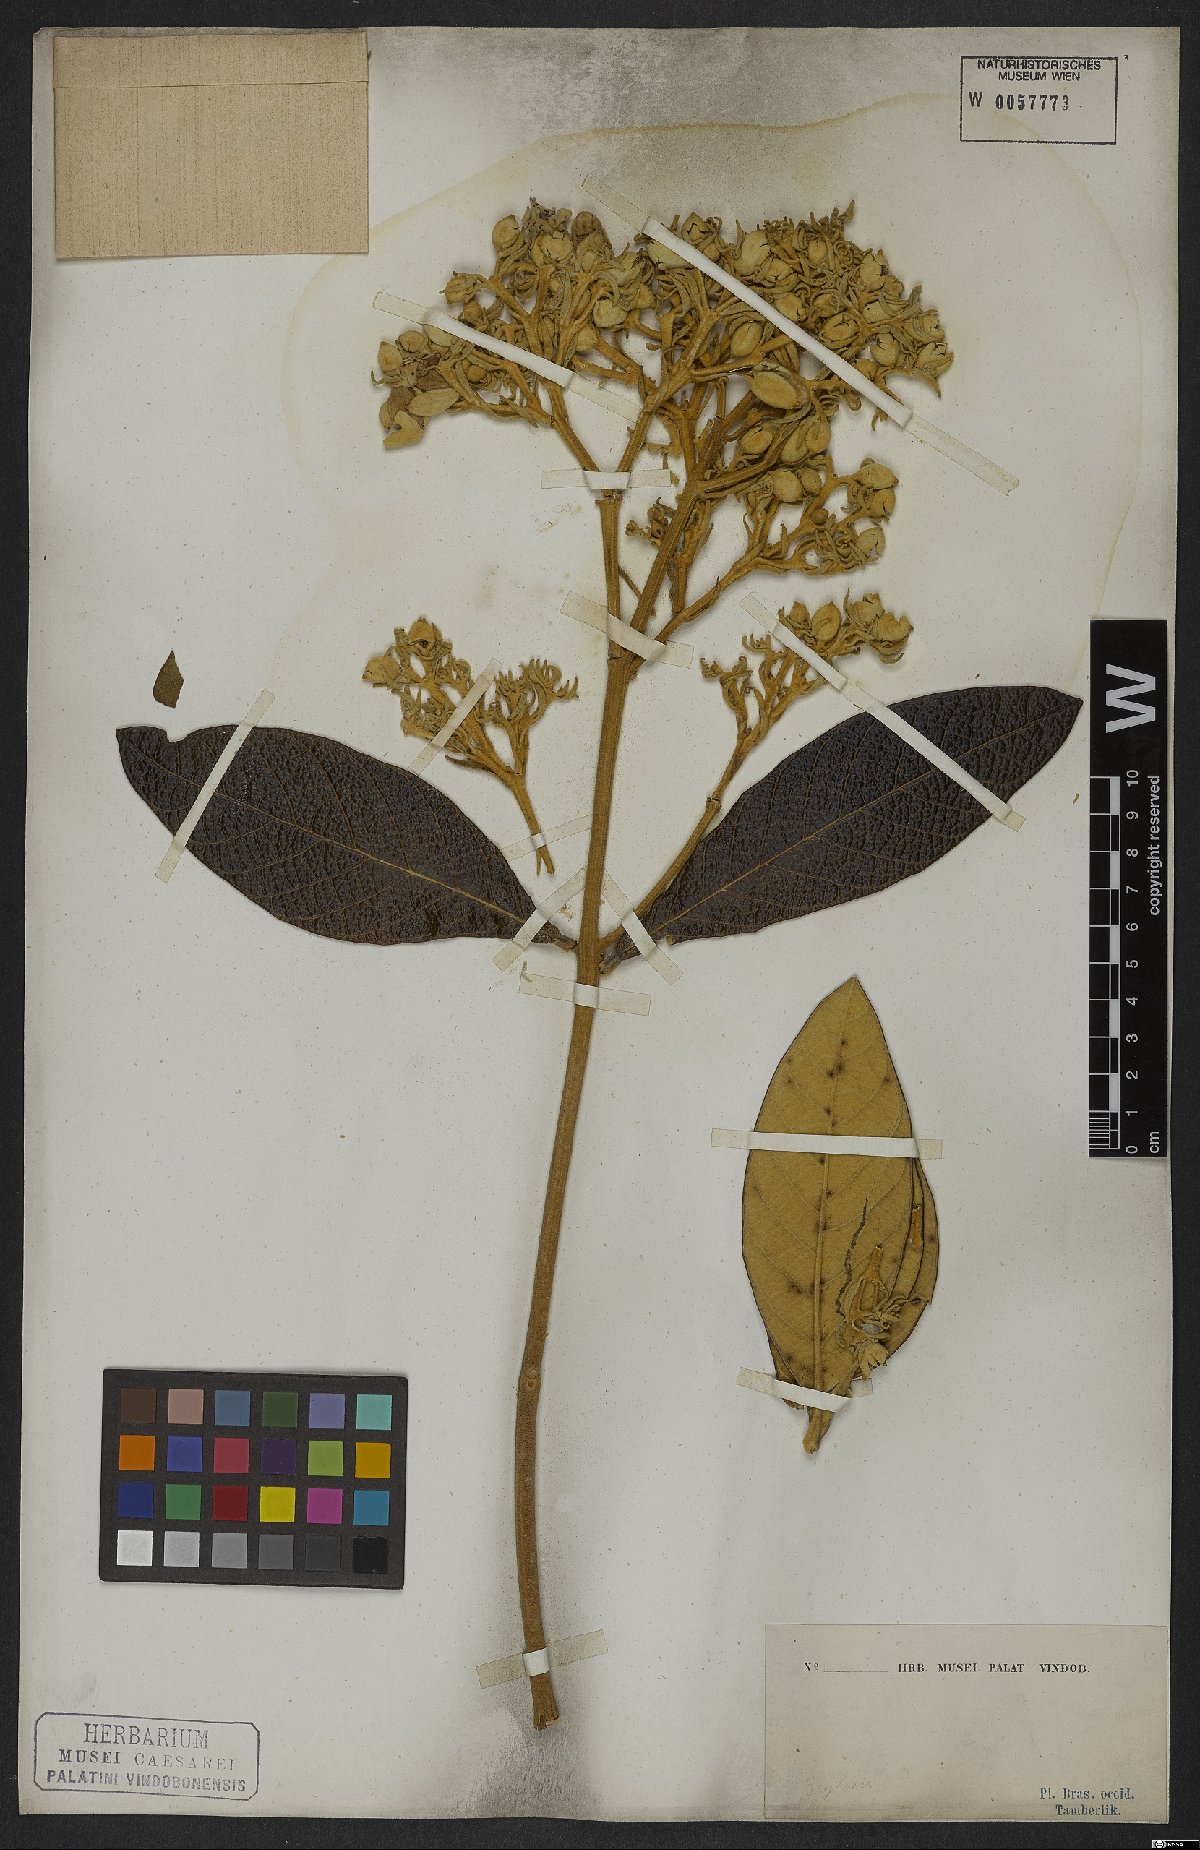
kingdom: Plantae
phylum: Tracheophyta
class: Magnoliopsida
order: Lamiales
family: Bignoniaceae
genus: Zeyheria
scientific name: Zeyheria montana
